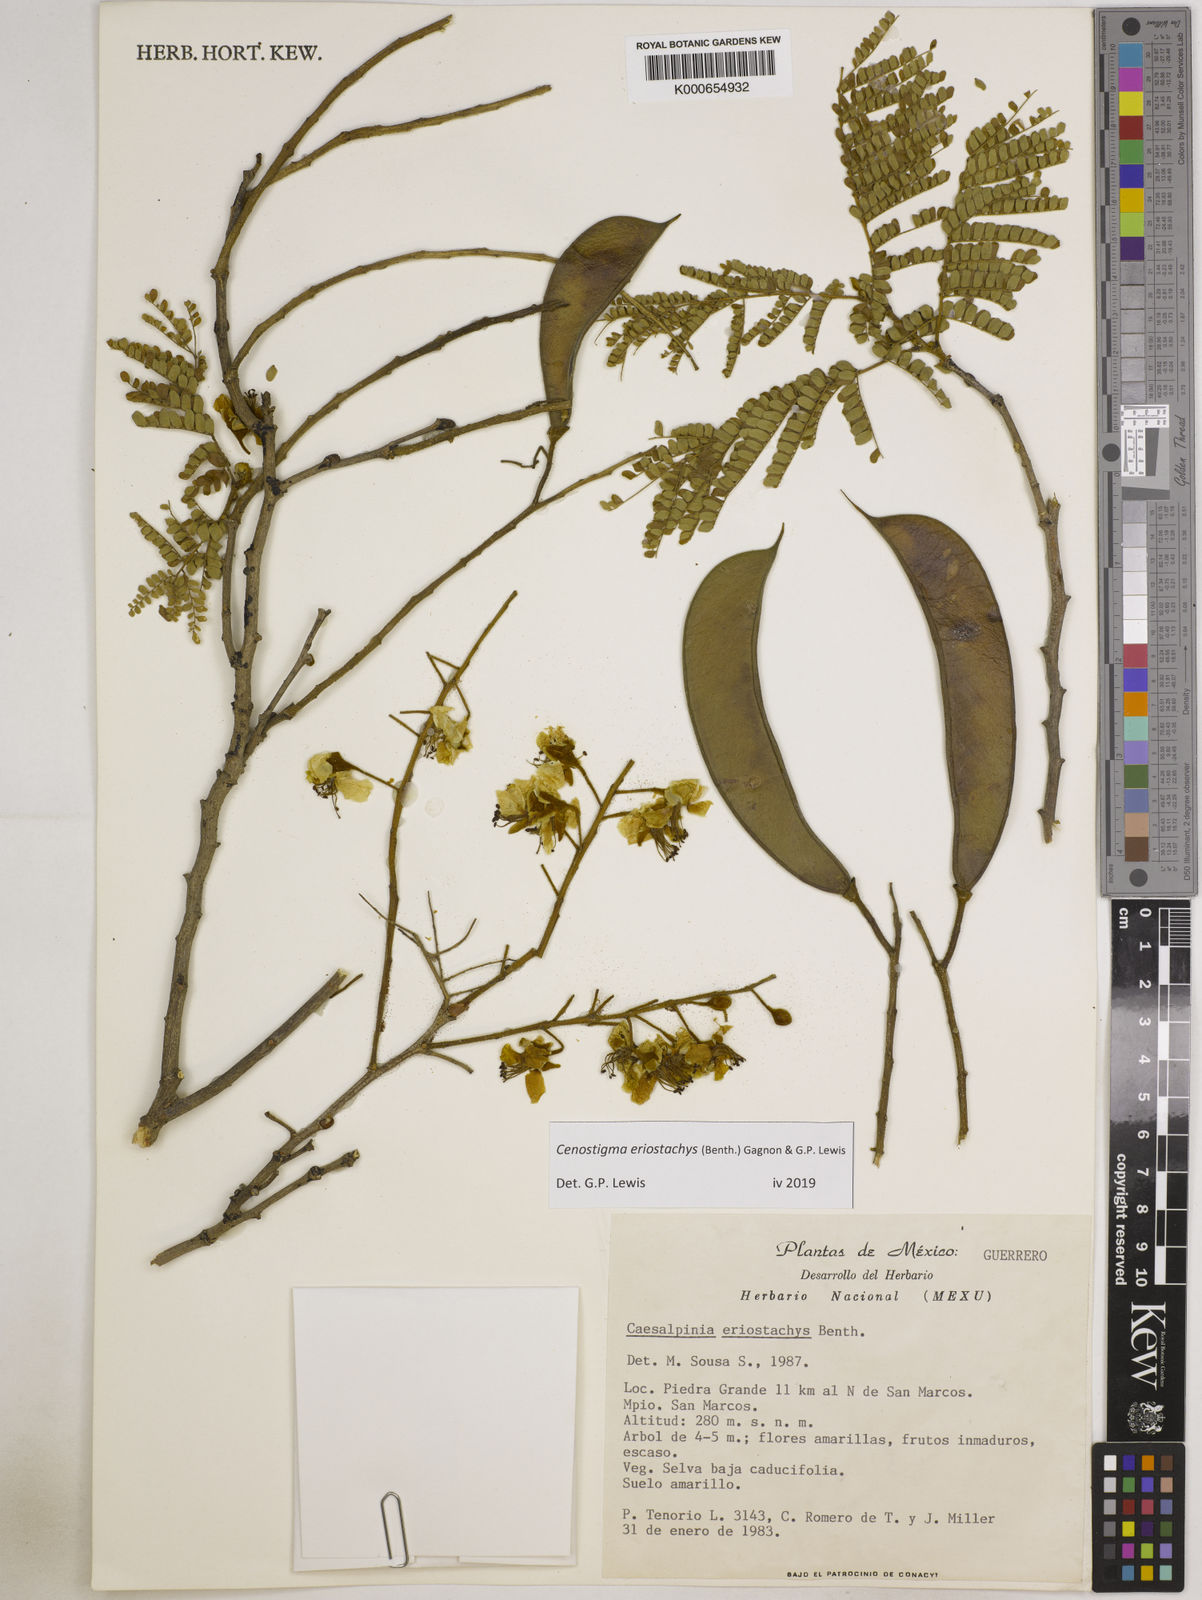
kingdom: Plantae
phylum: Tracheophyta
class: Magnoliopsida
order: Fabales
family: Fabaceae
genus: Cenostigma
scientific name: Cenostigma eriostachys
